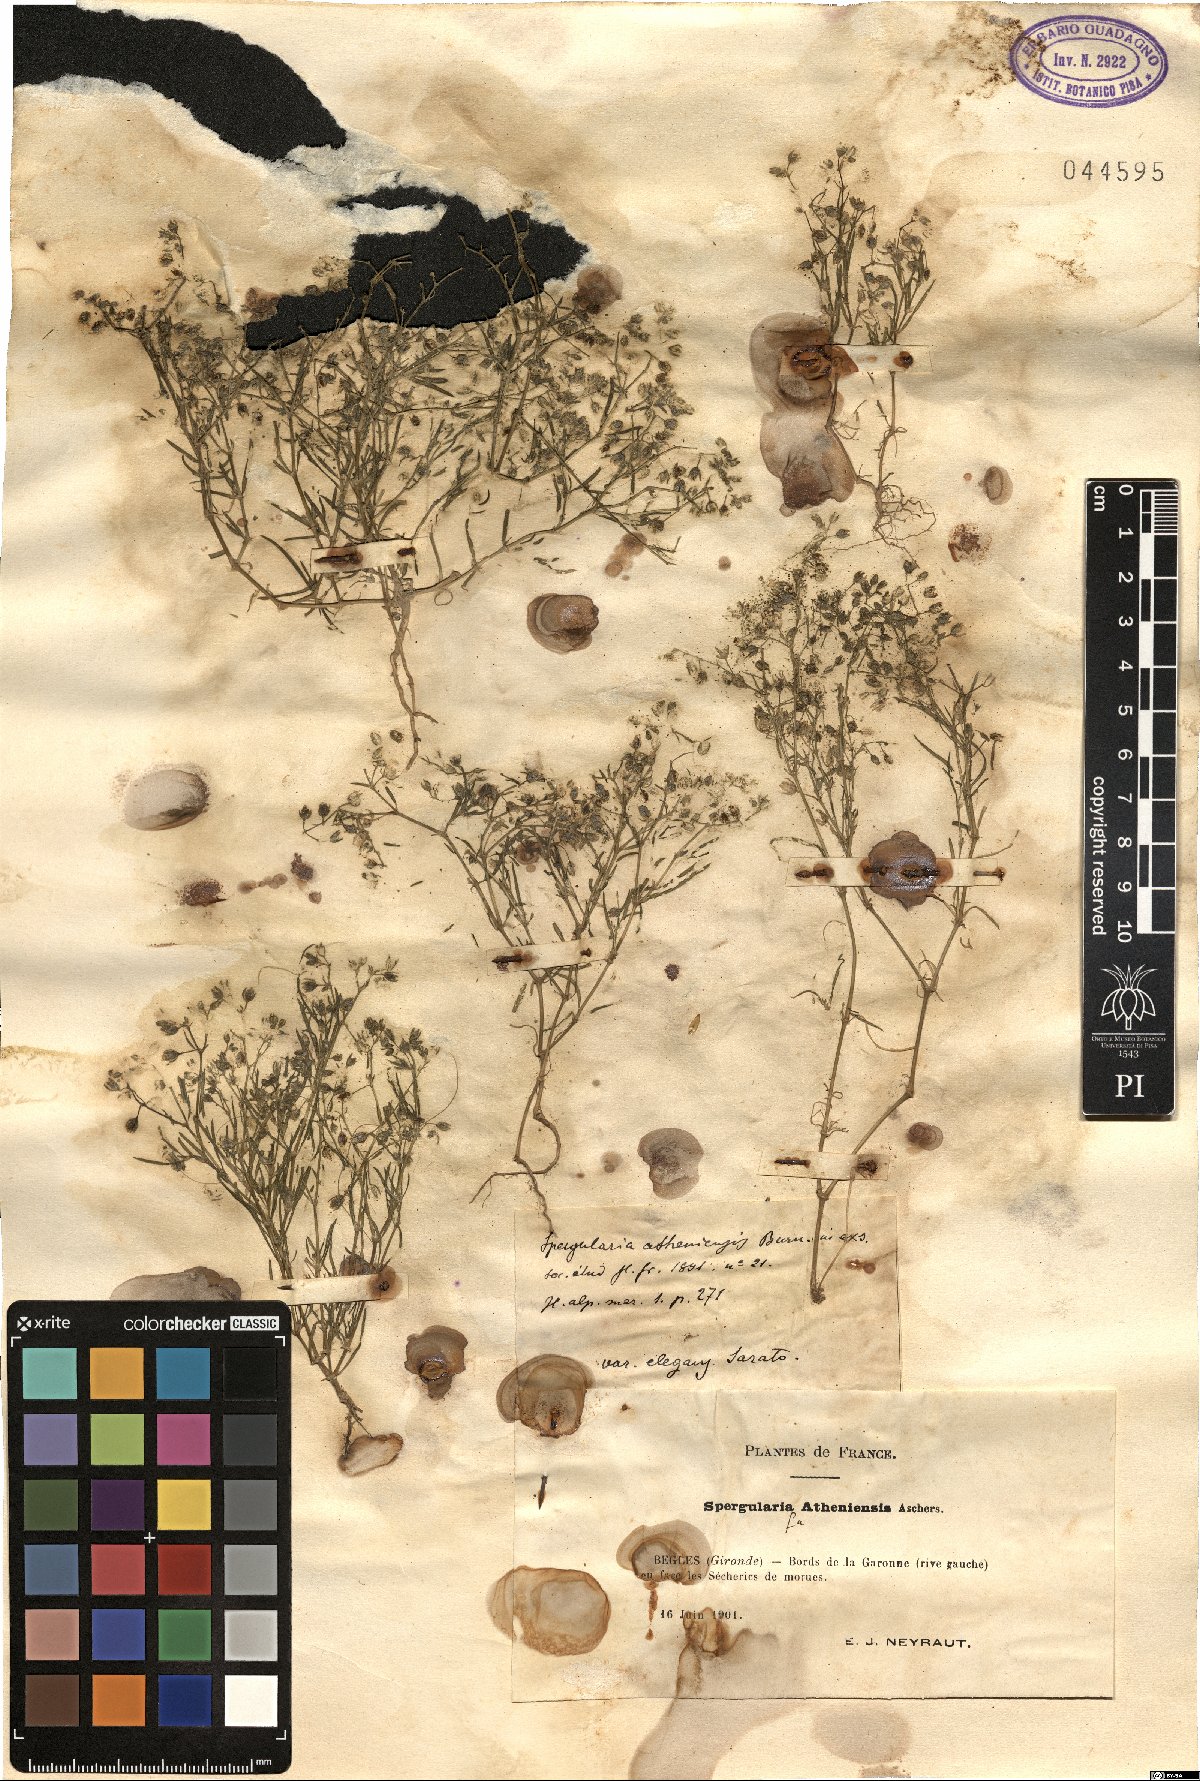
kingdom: Plantae
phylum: Tracheophyta
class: Magnoliopsida
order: Caryophyllales
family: Caryophyllaceae
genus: Spergularia
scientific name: Spergularia
